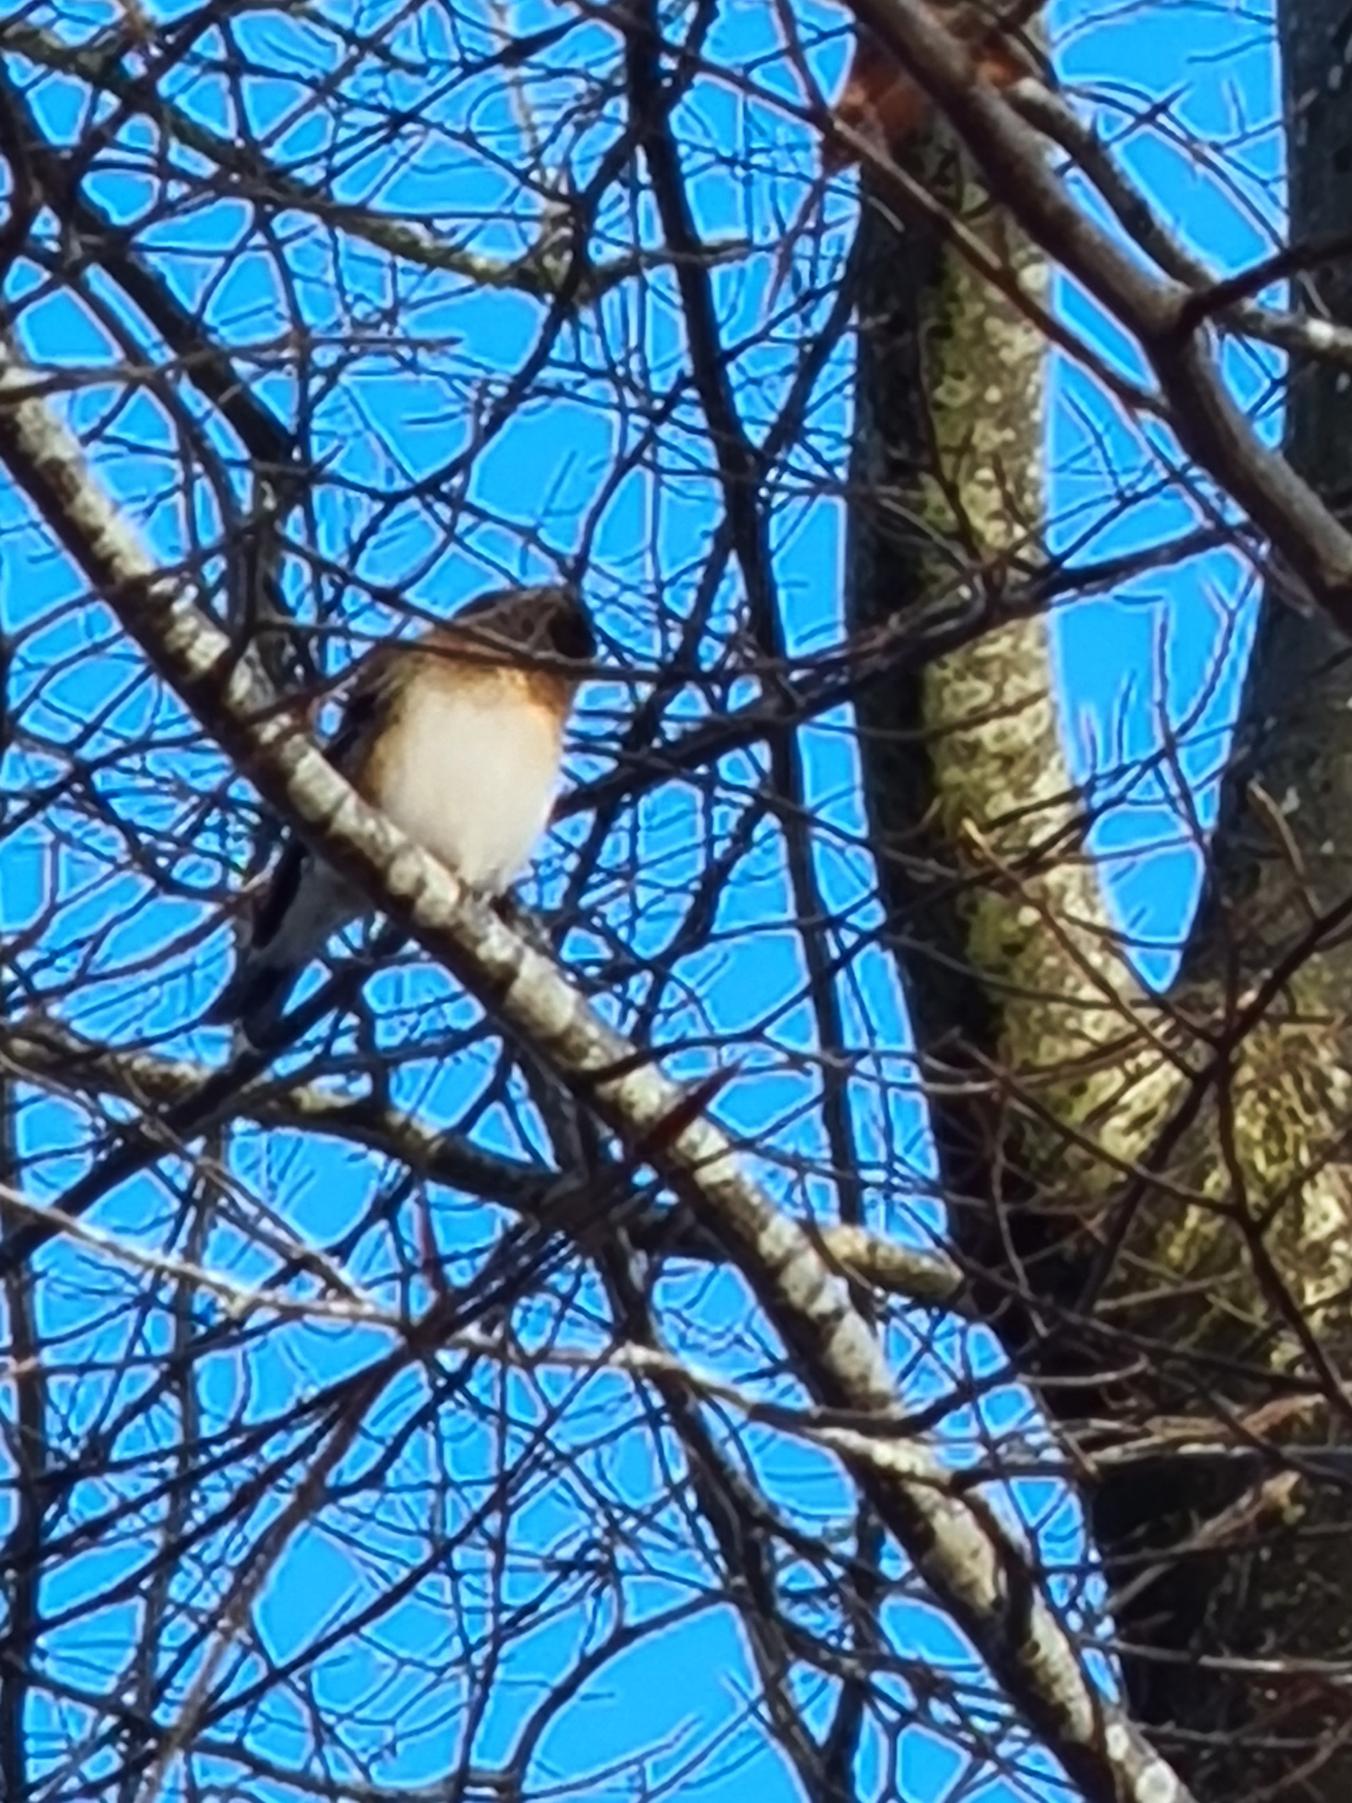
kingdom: Animalia
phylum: Chordata
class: Aves
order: Passeriformes
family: Fringillidae
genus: Fringilla
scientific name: Fringilla montifringilla
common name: Kvækerfinke
